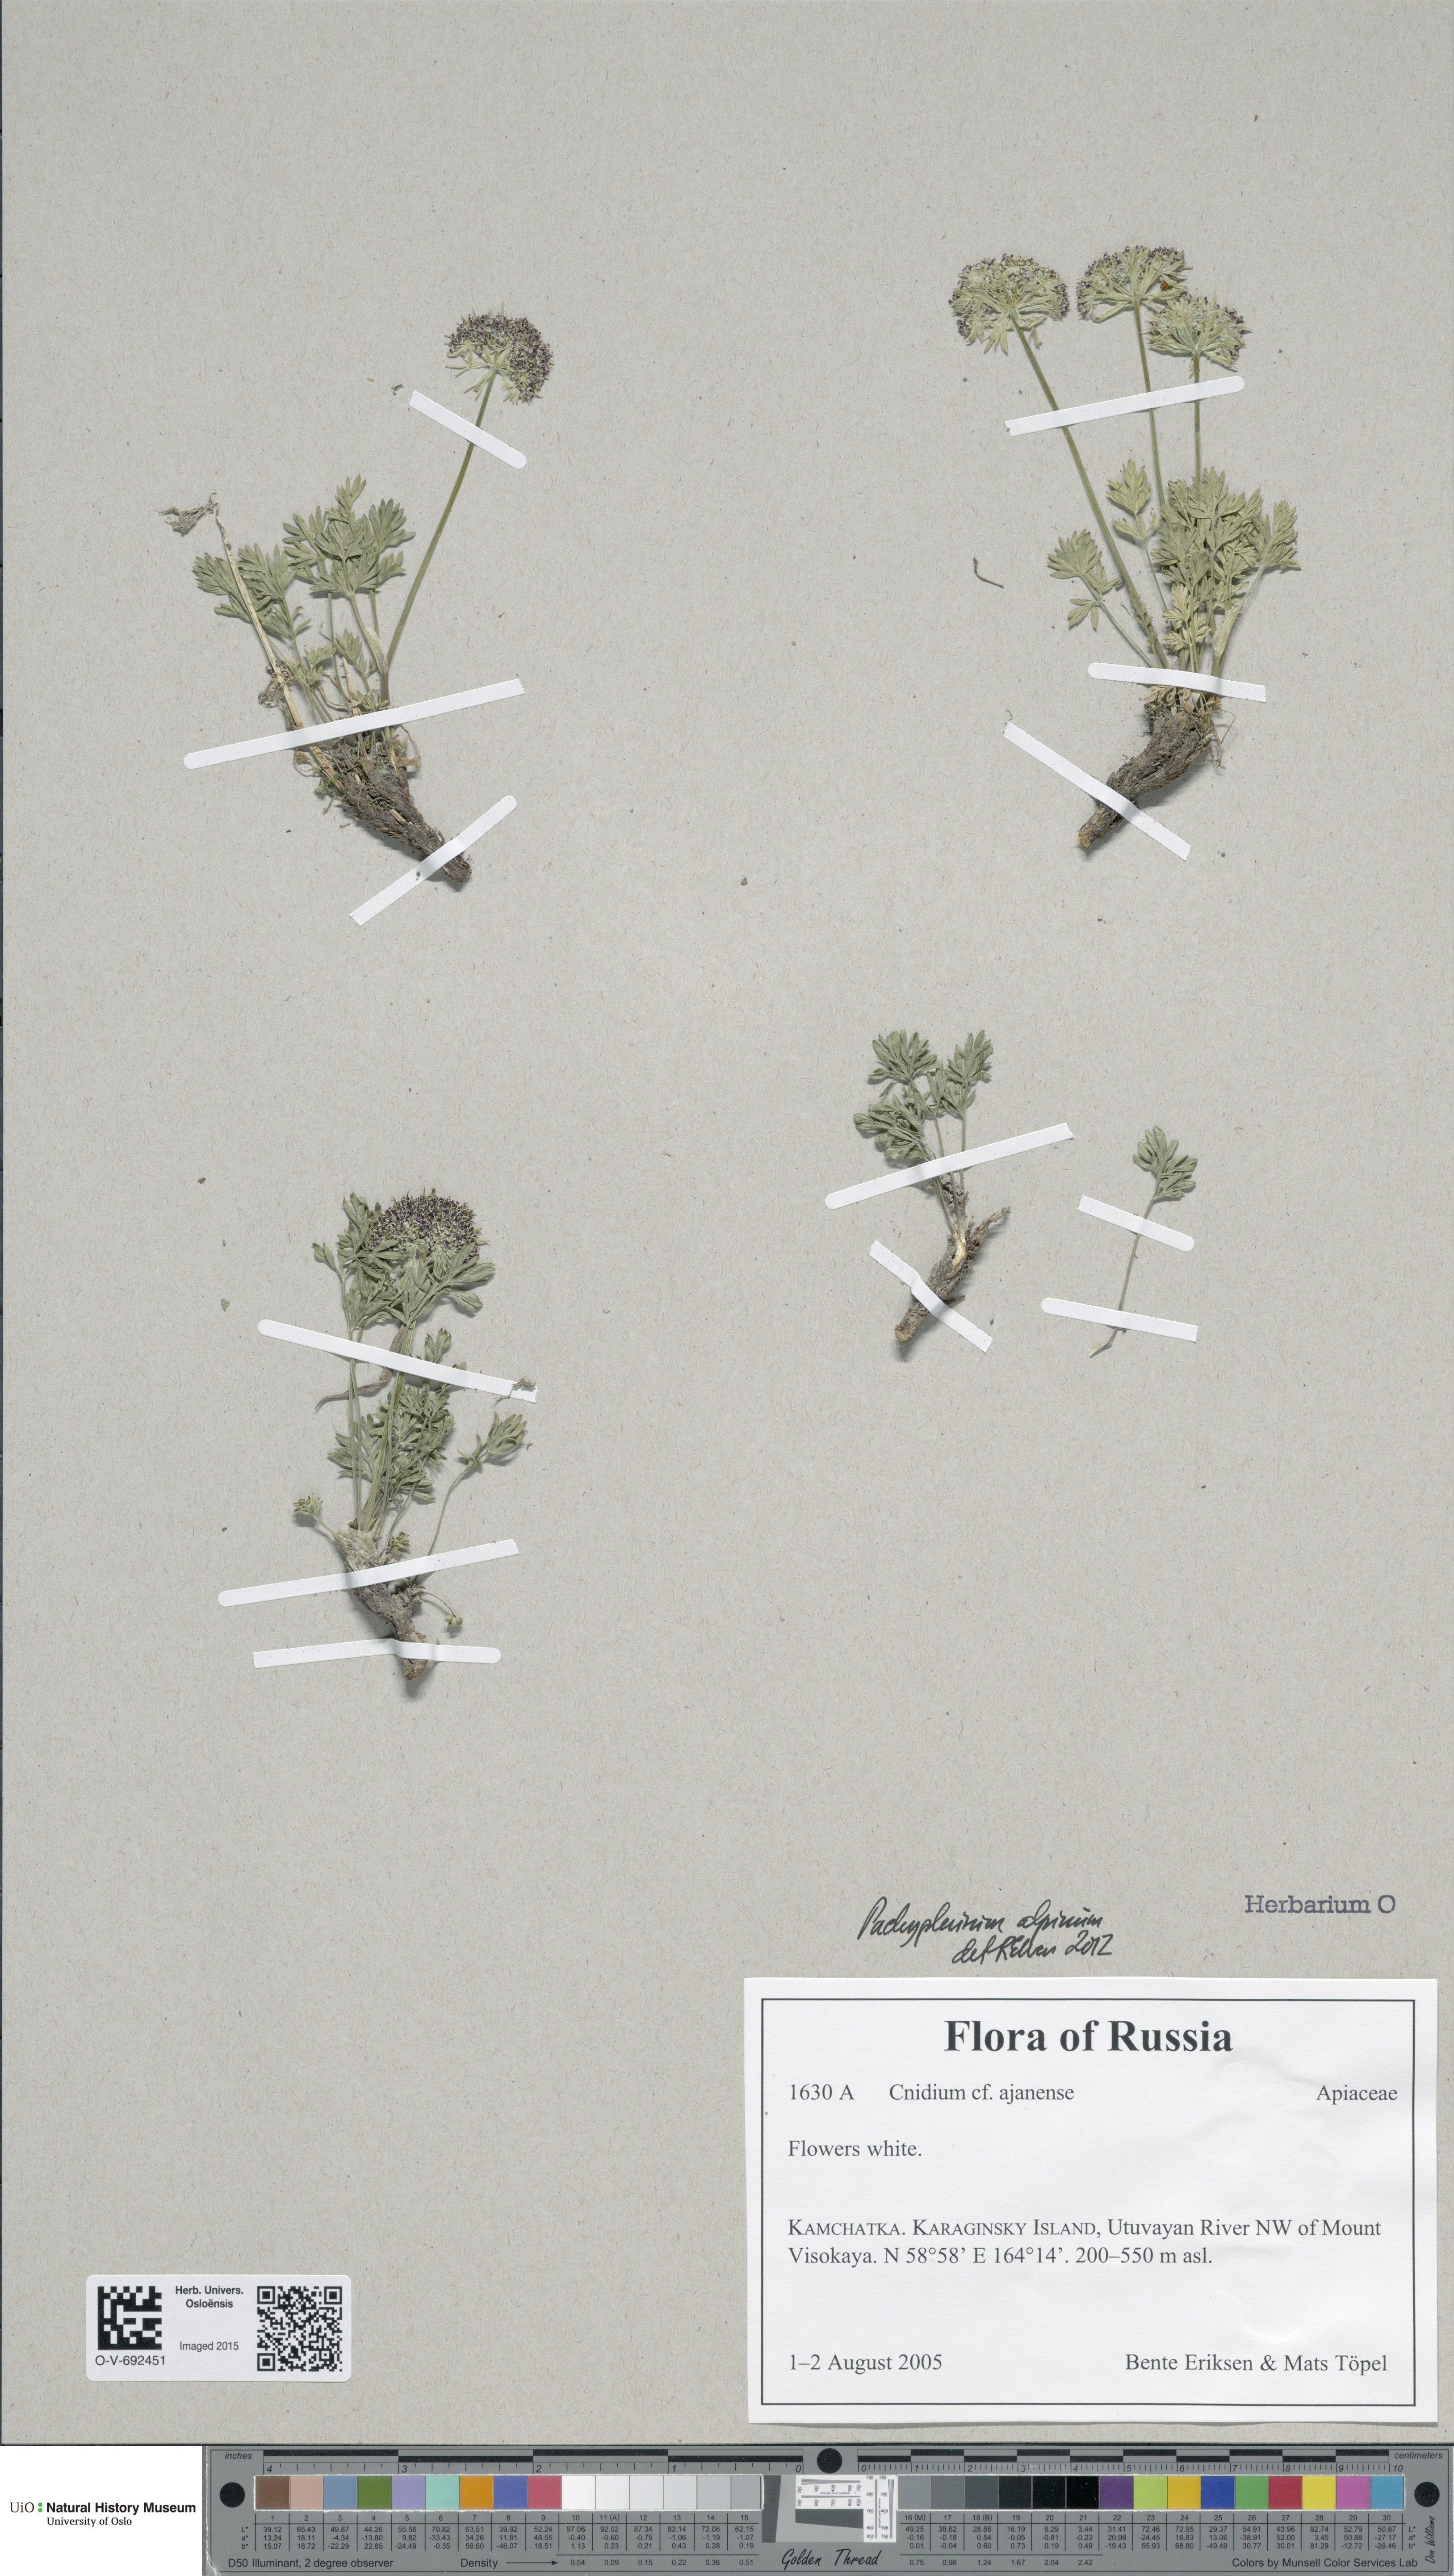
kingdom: Plantae
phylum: Tracheophyta
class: Magnoliopsida
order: Apiales
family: Apiaceae
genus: Pachypleurum
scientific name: Pachypleurum mutellinoides
